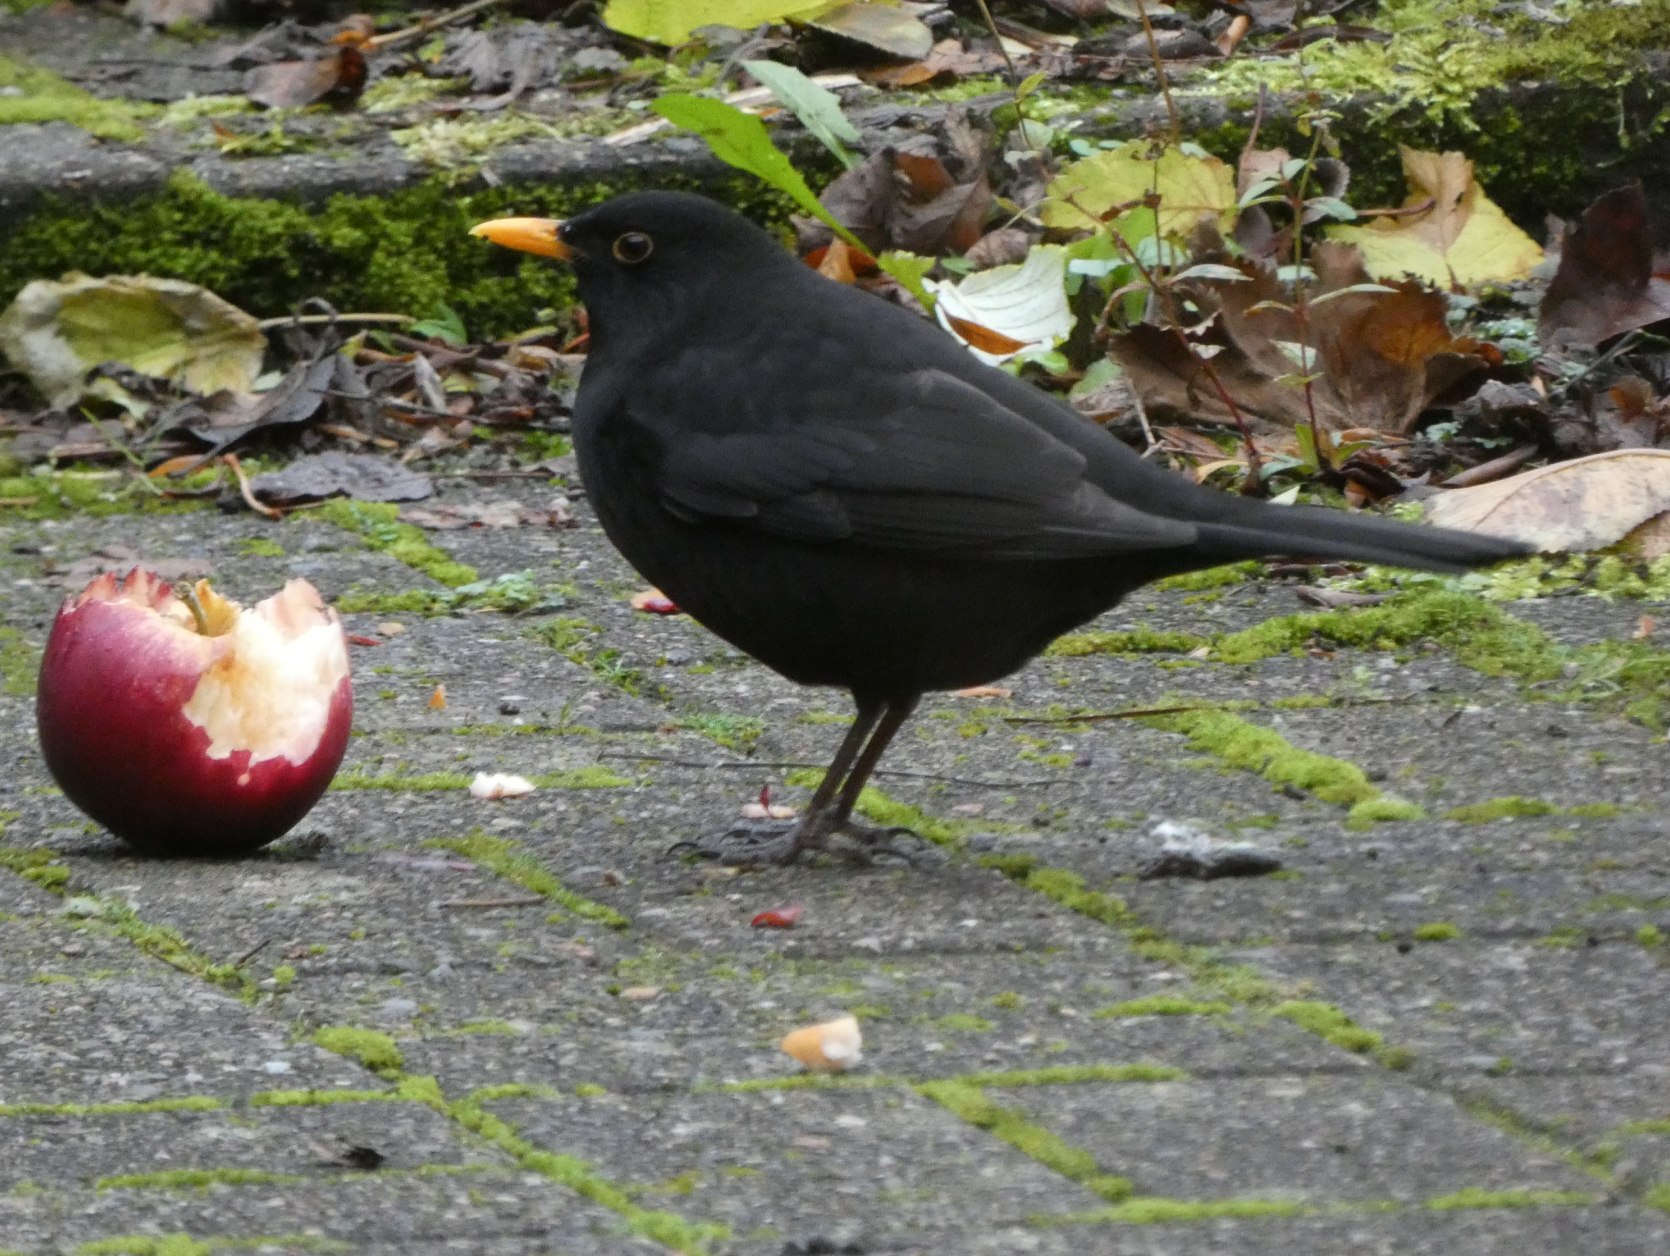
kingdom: Animalia
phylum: Chordata
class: Aves
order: Passeriformes
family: Turdidae
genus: Turdus
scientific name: Turdus merula
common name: Solsort
